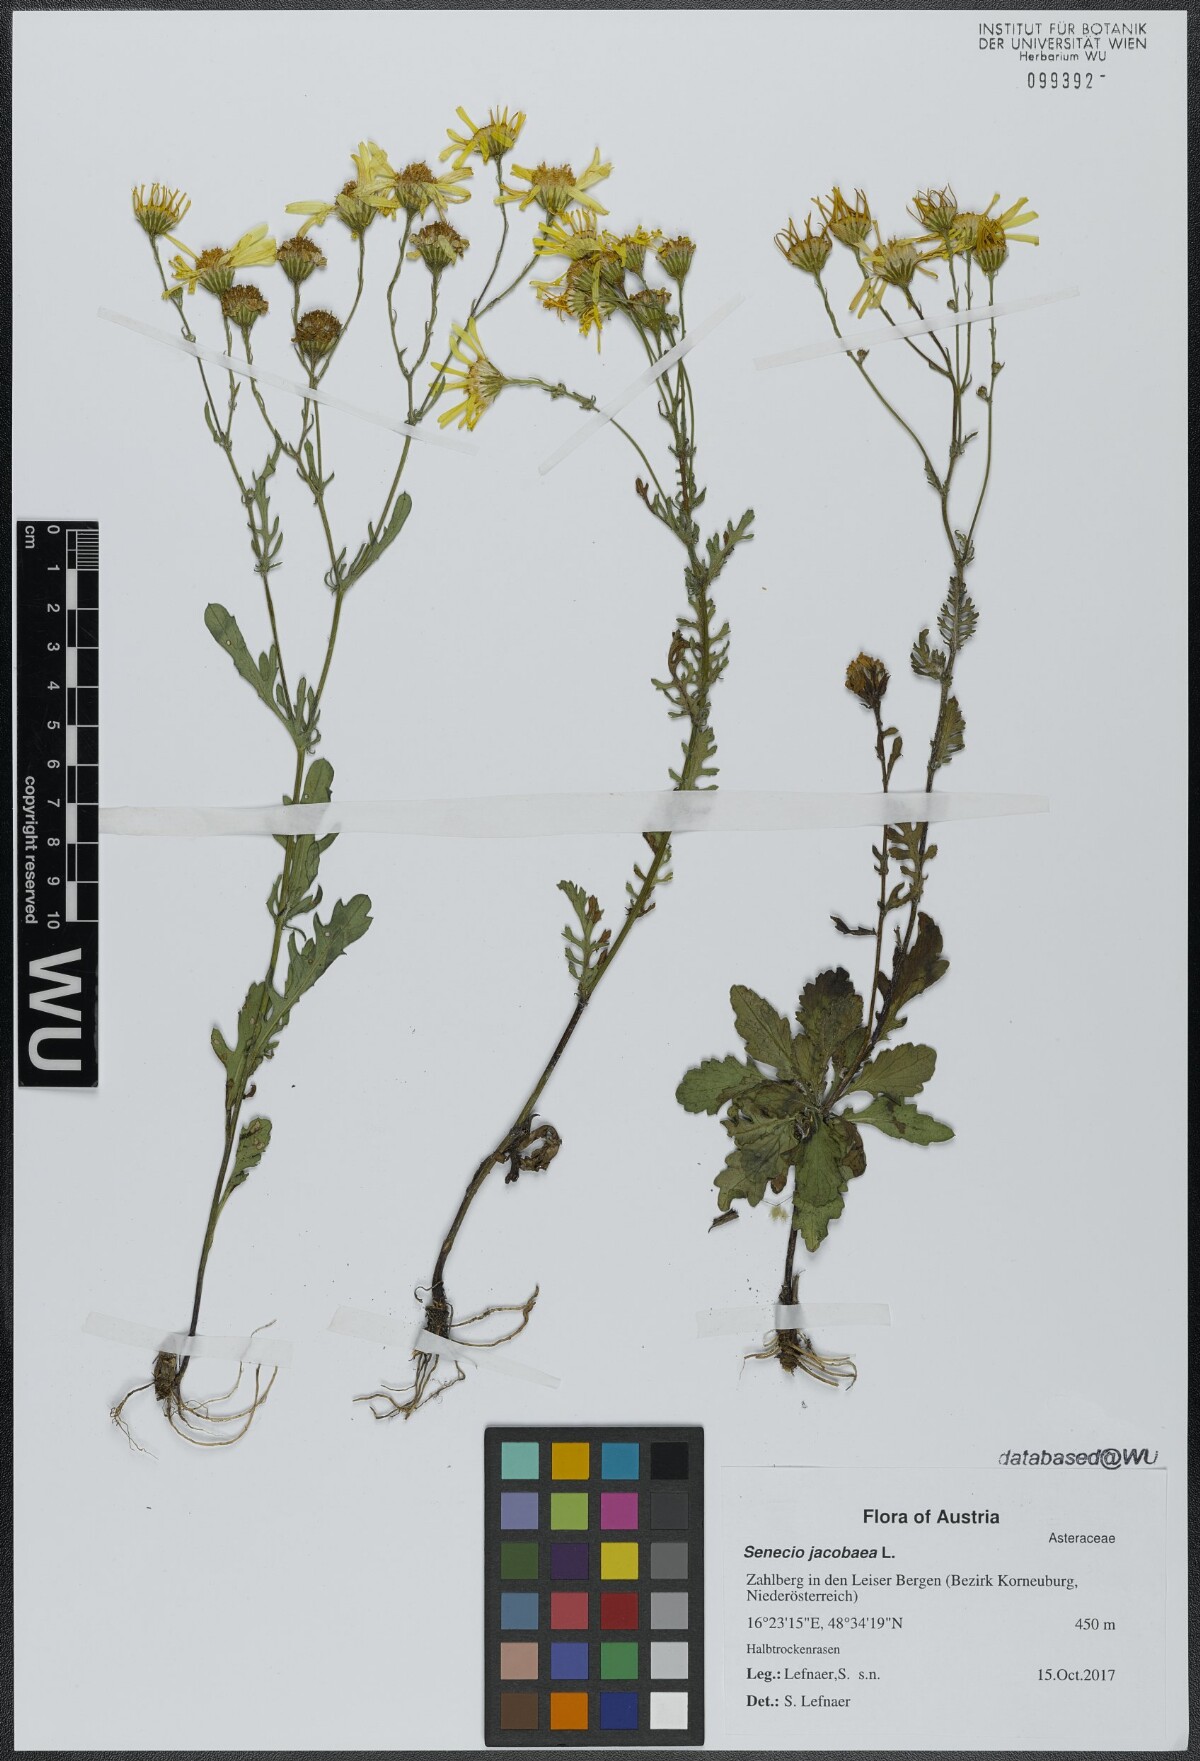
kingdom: Plantae
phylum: Tracheophyta
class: Magnoliopsida
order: Asterales
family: Asteraceae
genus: Jacobaea
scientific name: Jacobaea vulgaris
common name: Stinking willie
